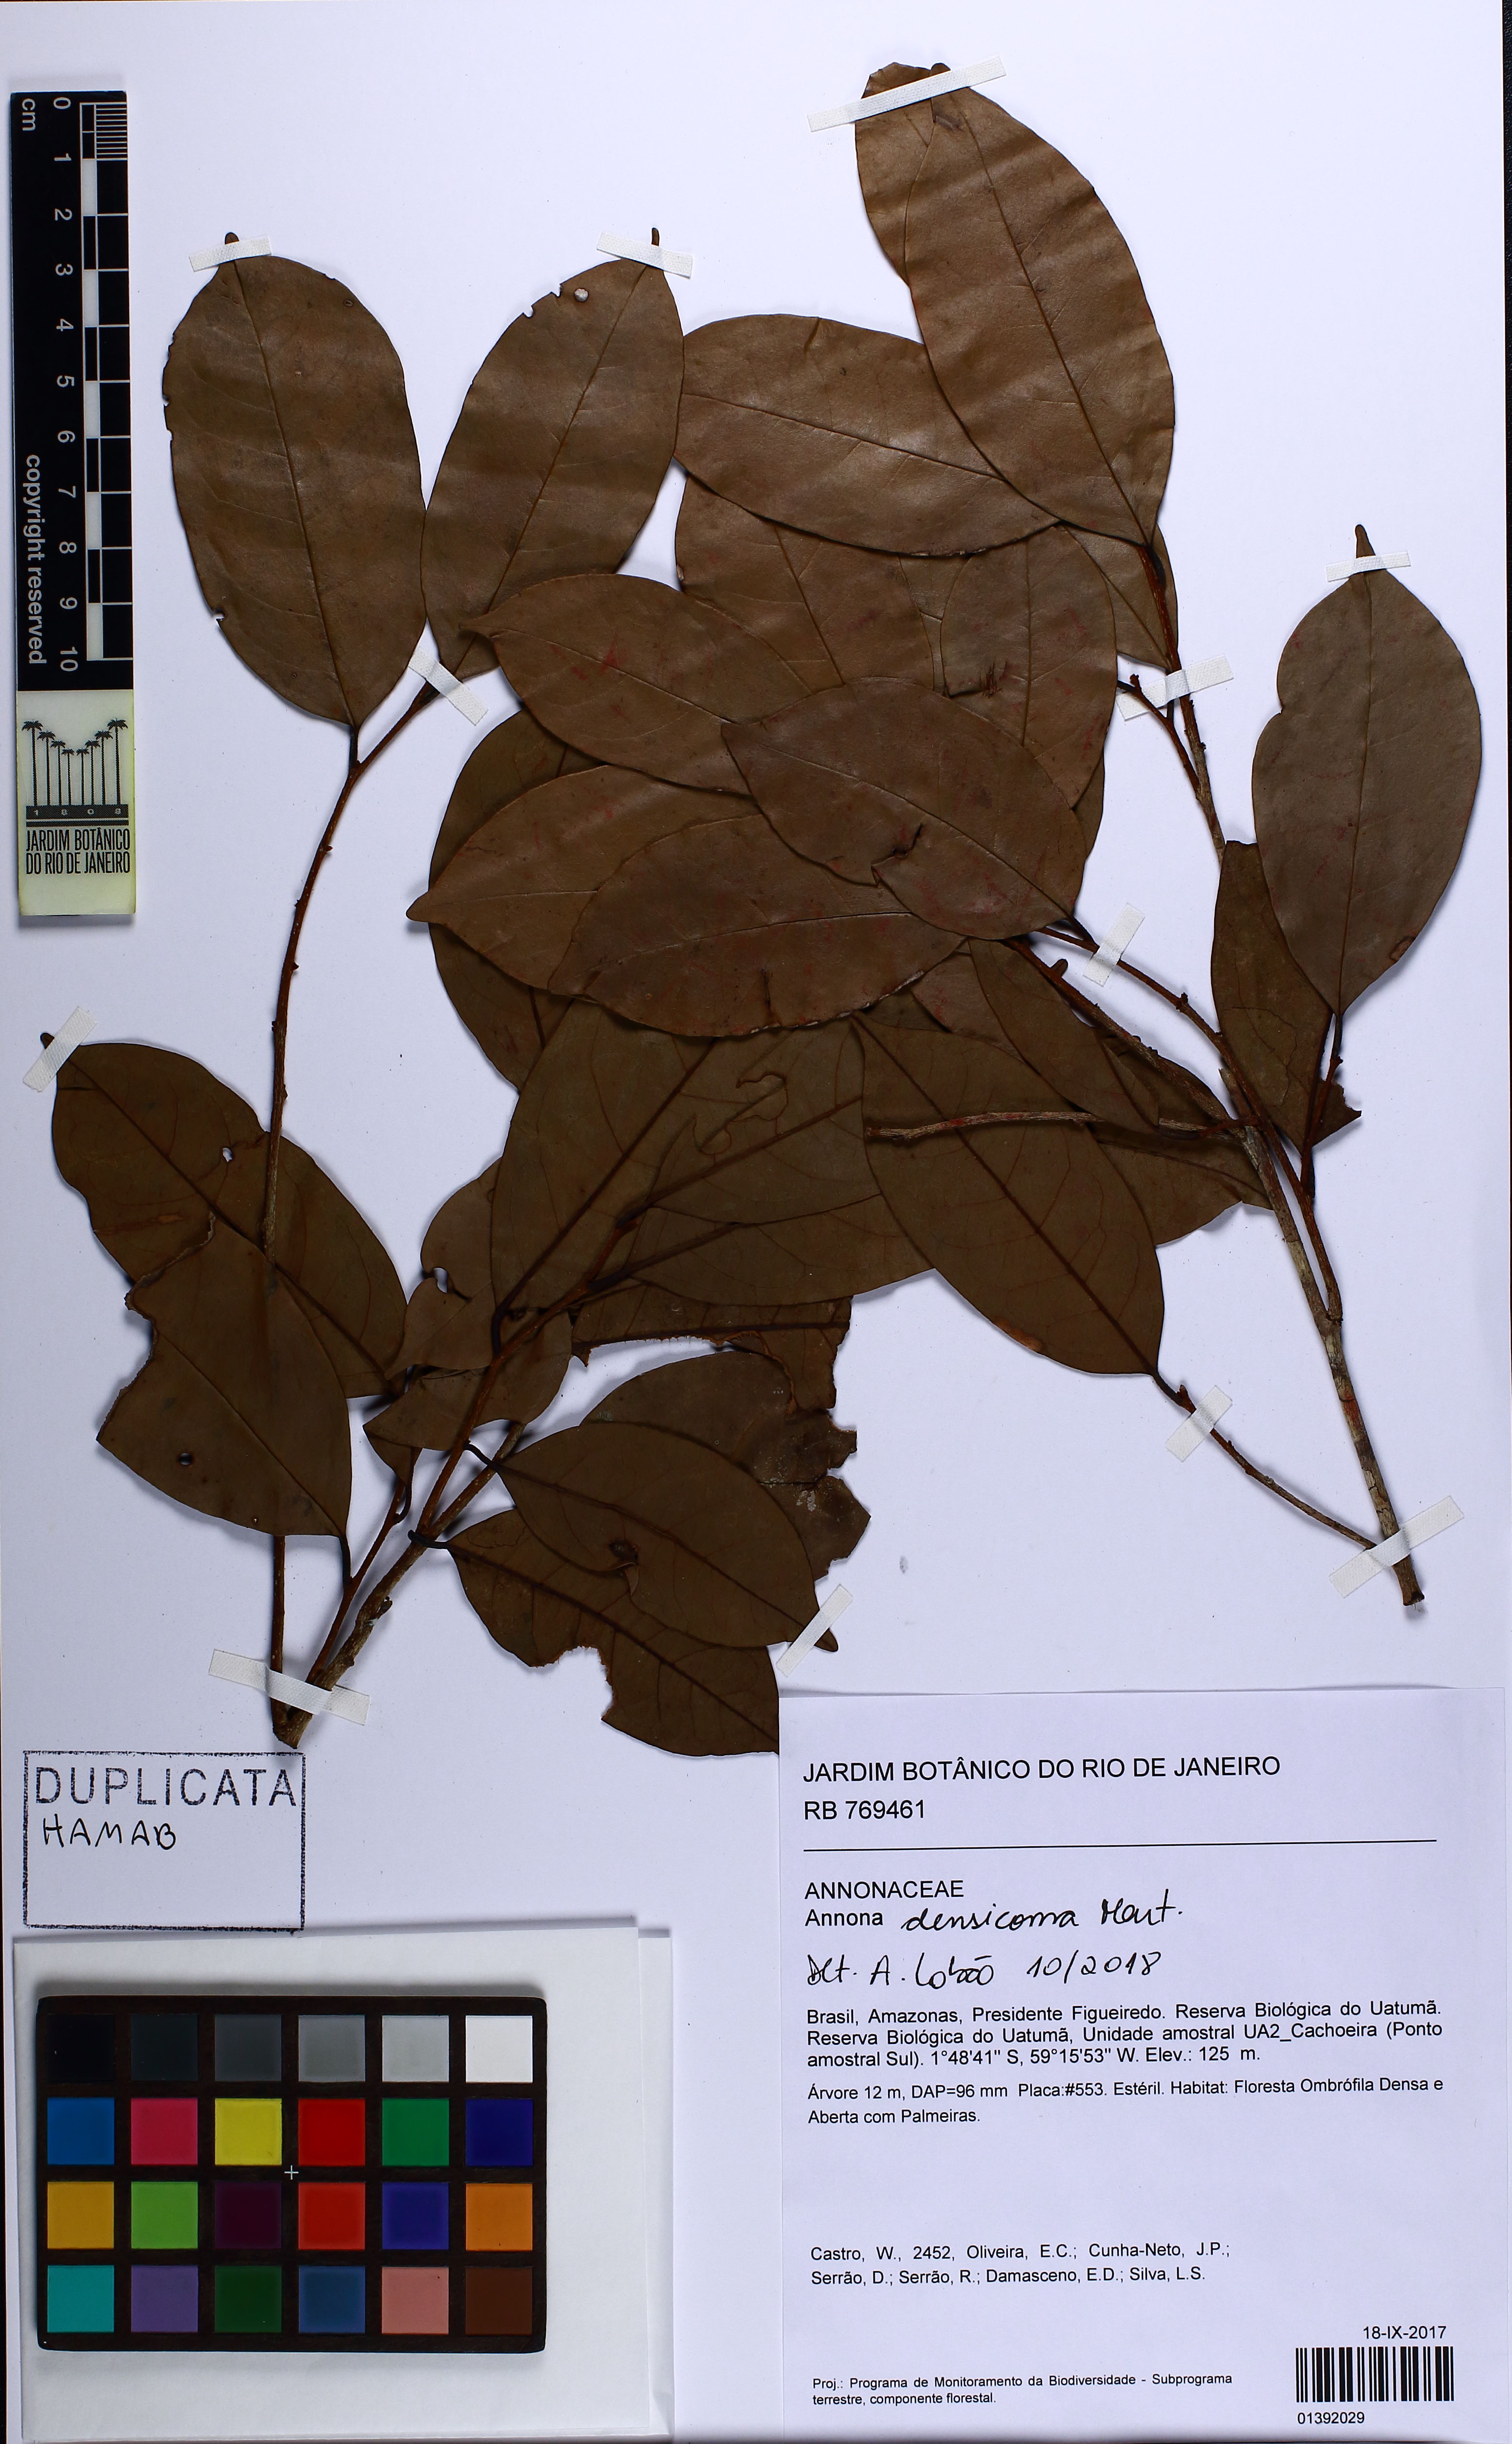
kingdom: Plantae
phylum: Tracheophyta
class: Magnoliopsida
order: Magnoliales
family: Annonaceae
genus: Annona
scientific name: Annona densicoma
